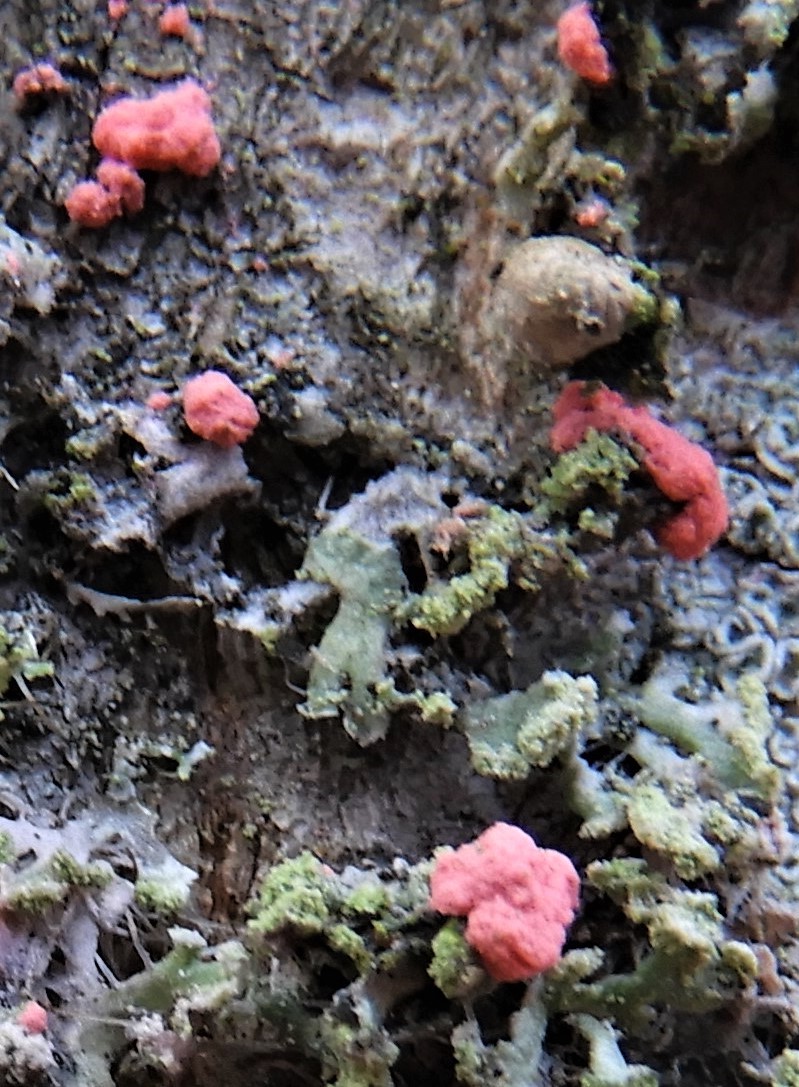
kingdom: Fungi
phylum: Ascomycota
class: Sordariomycetes
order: Hypocreales
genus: Illosporiopsis
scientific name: Illosporiopsis christiansenii
